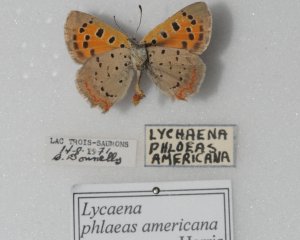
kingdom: Animalia
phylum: Arthropoda
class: Insecta
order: Lepidoptera
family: Lycaenidae
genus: Lycaena
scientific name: Lycaena phlaeas
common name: American Copper
